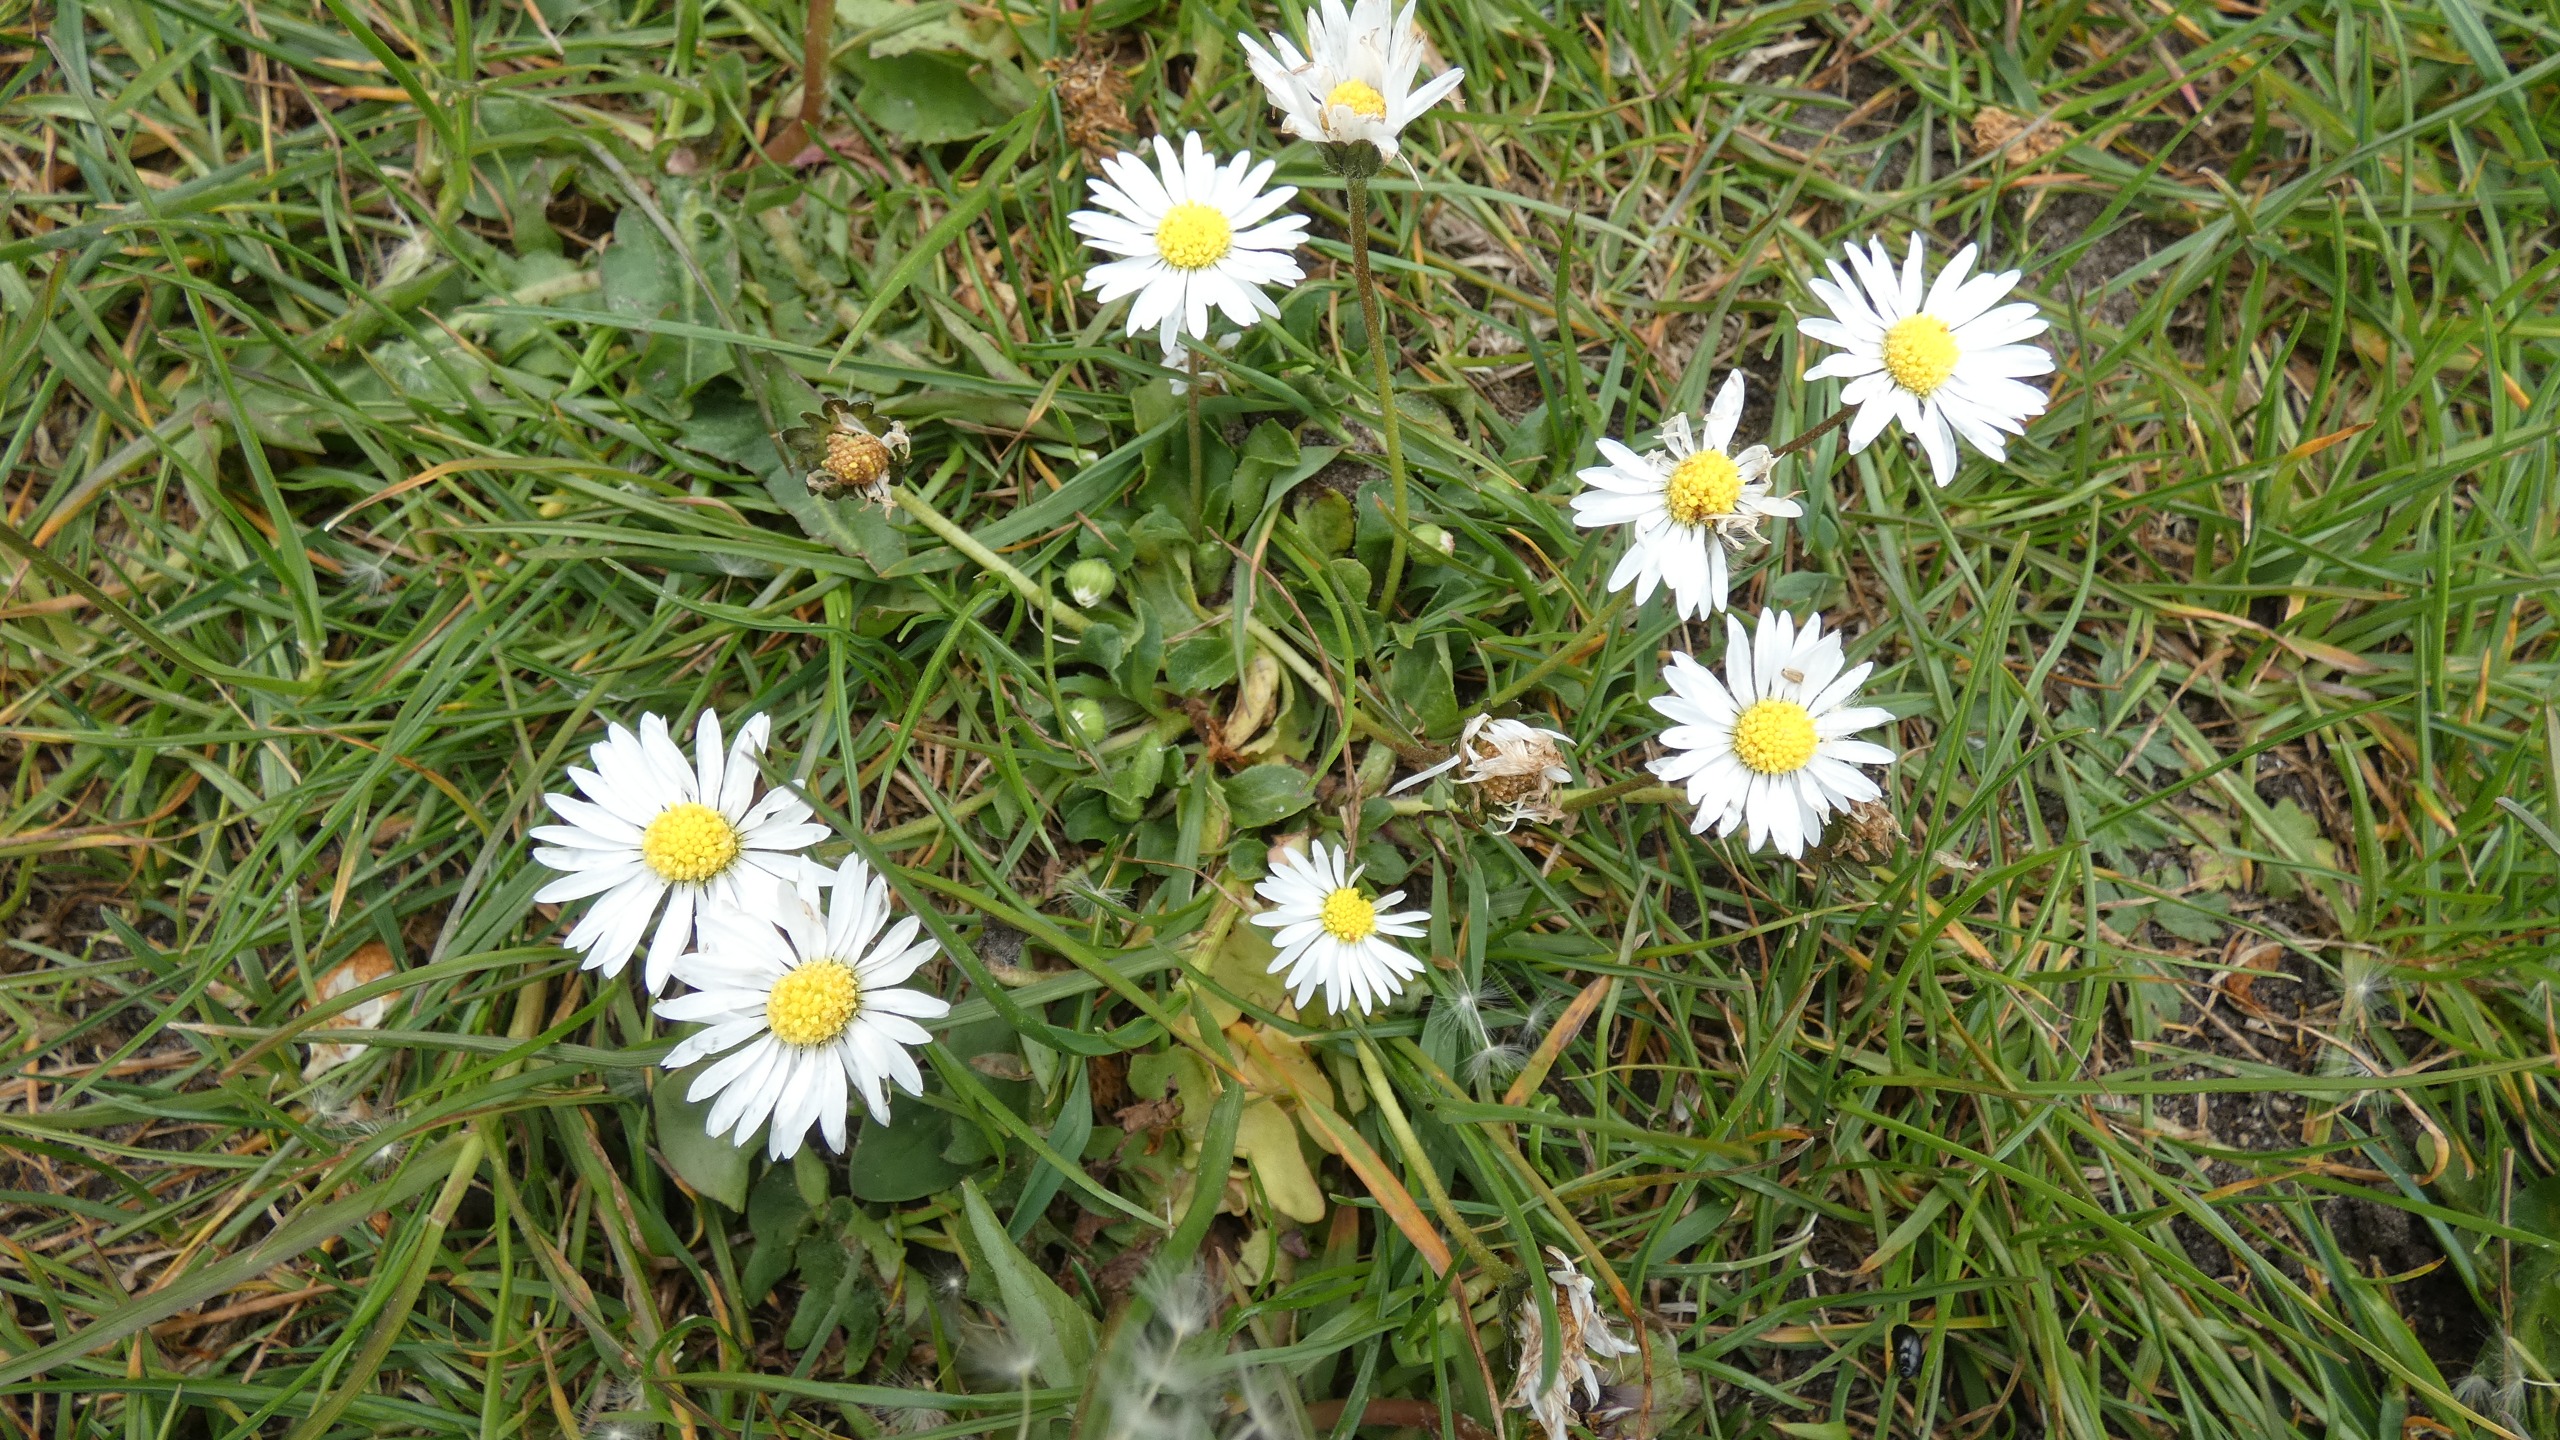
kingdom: Plantae
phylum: Tracheophyta
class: Magnoliopsida
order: Asterales
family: Asteraceae
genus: Bellis
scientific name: Bellis perennis
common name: Tusindfryd
